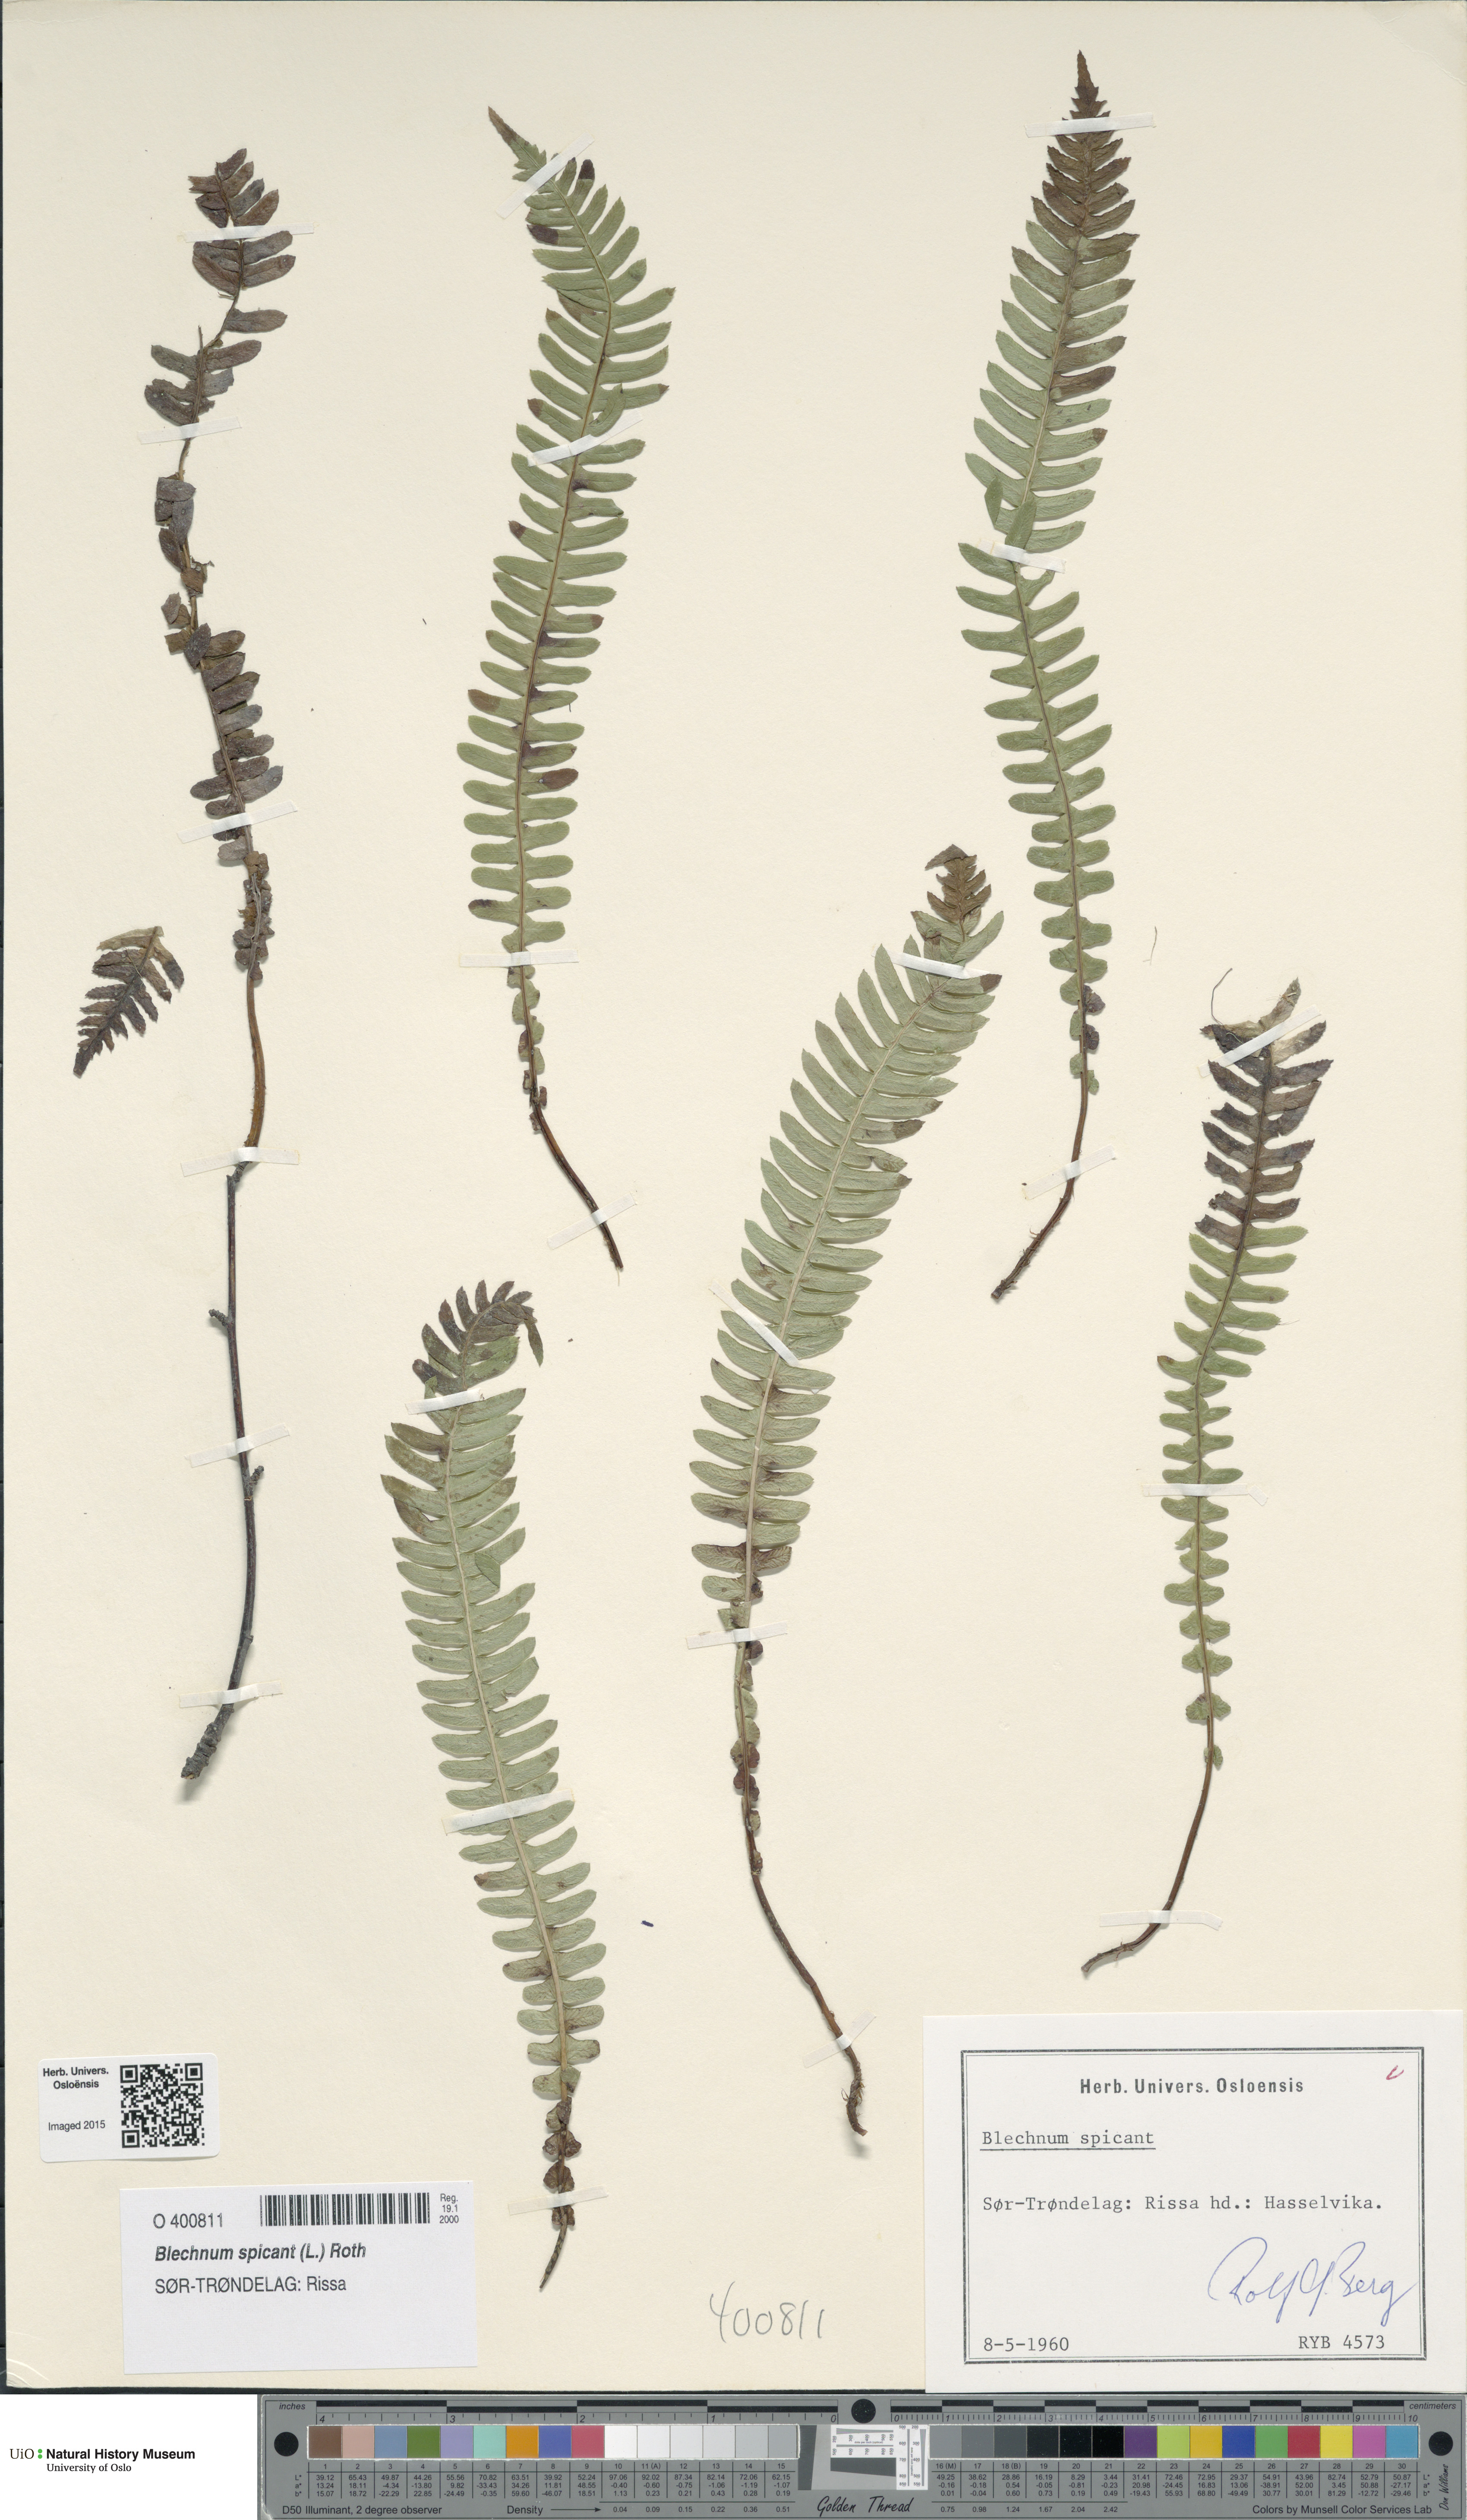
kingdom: Plantae
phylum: Tracheophyta
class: Polypodiopsida
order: Polypodiales
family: Blechnaceae
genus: Struthiopteris
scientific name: Struthiopteris spicant
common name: Deer fern
